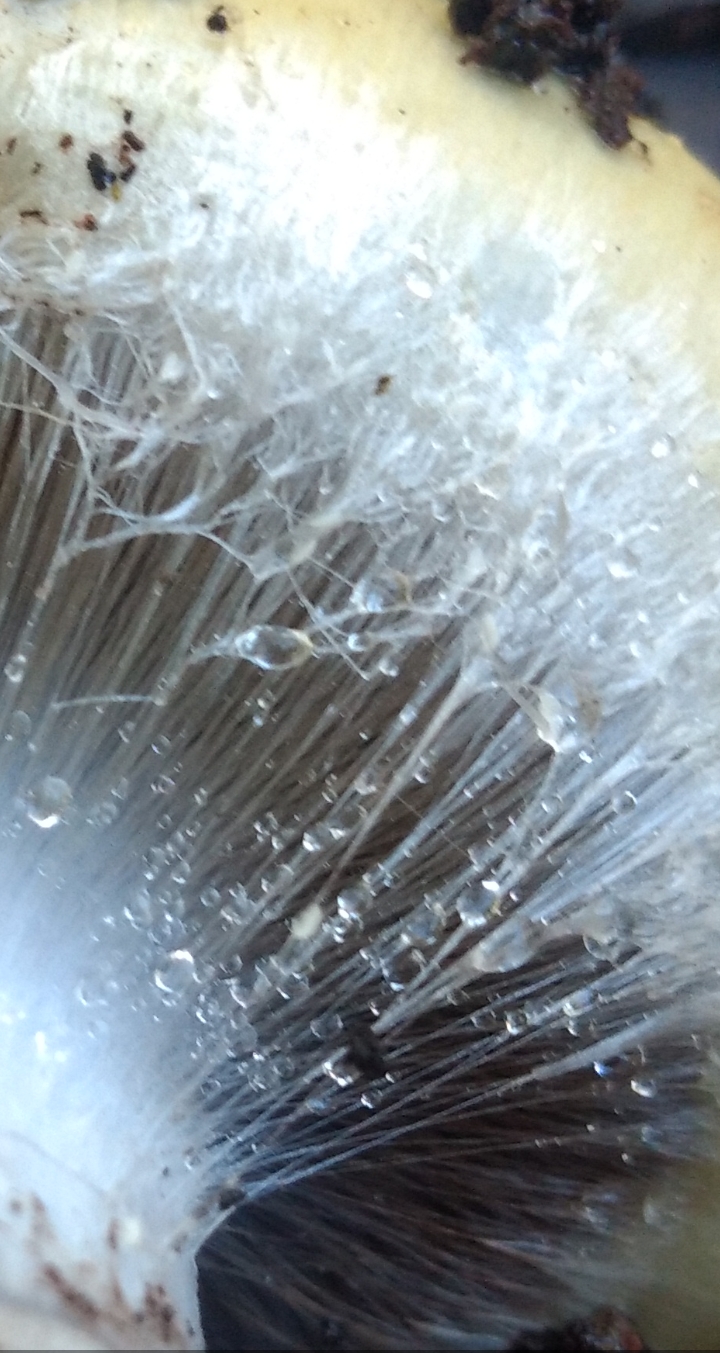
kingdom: Fungi
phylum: Basidiomycota
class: Agaricomycetes
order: Agaricales
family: Cortinariaceae
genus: Cortinarius
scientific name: Cortinarius anserinus
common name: bøge-slørhat
